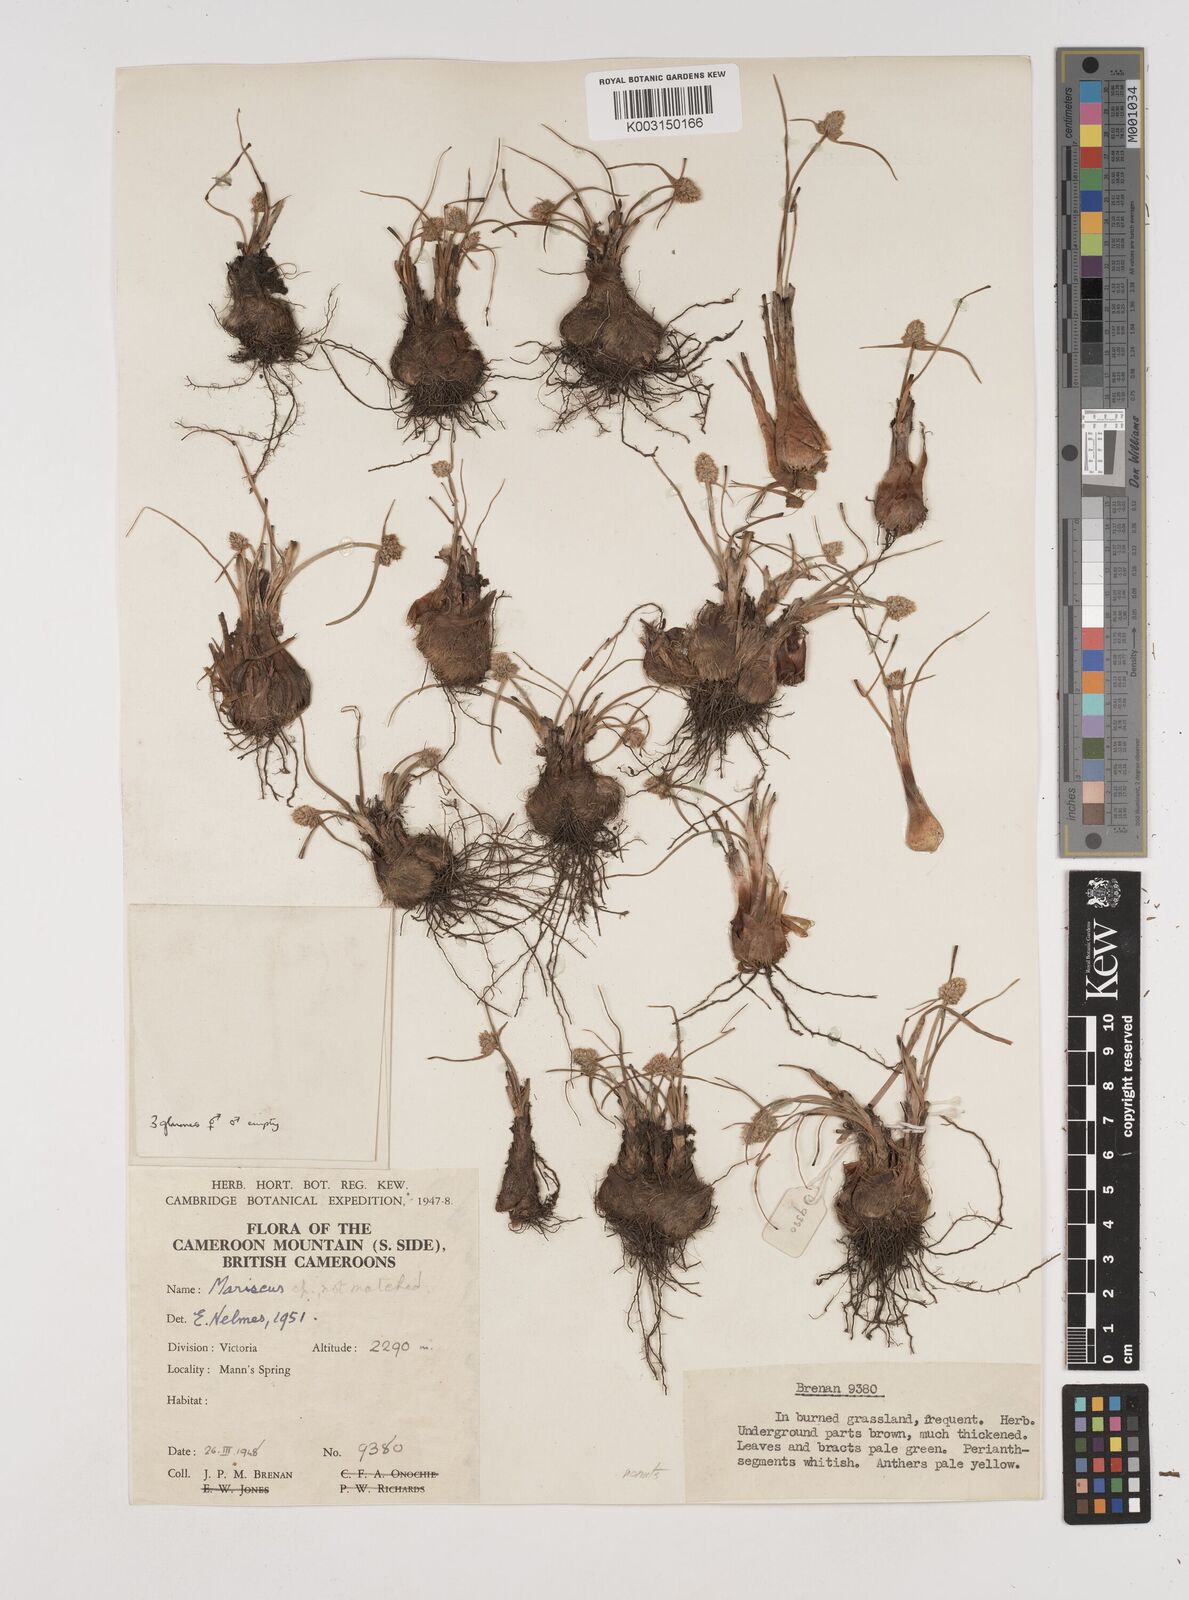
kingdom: Plantae
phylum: Tracheophyta
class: Liliopsida
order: Poales
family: Cyperaceae
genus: Cyperus
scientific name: Cyperus
